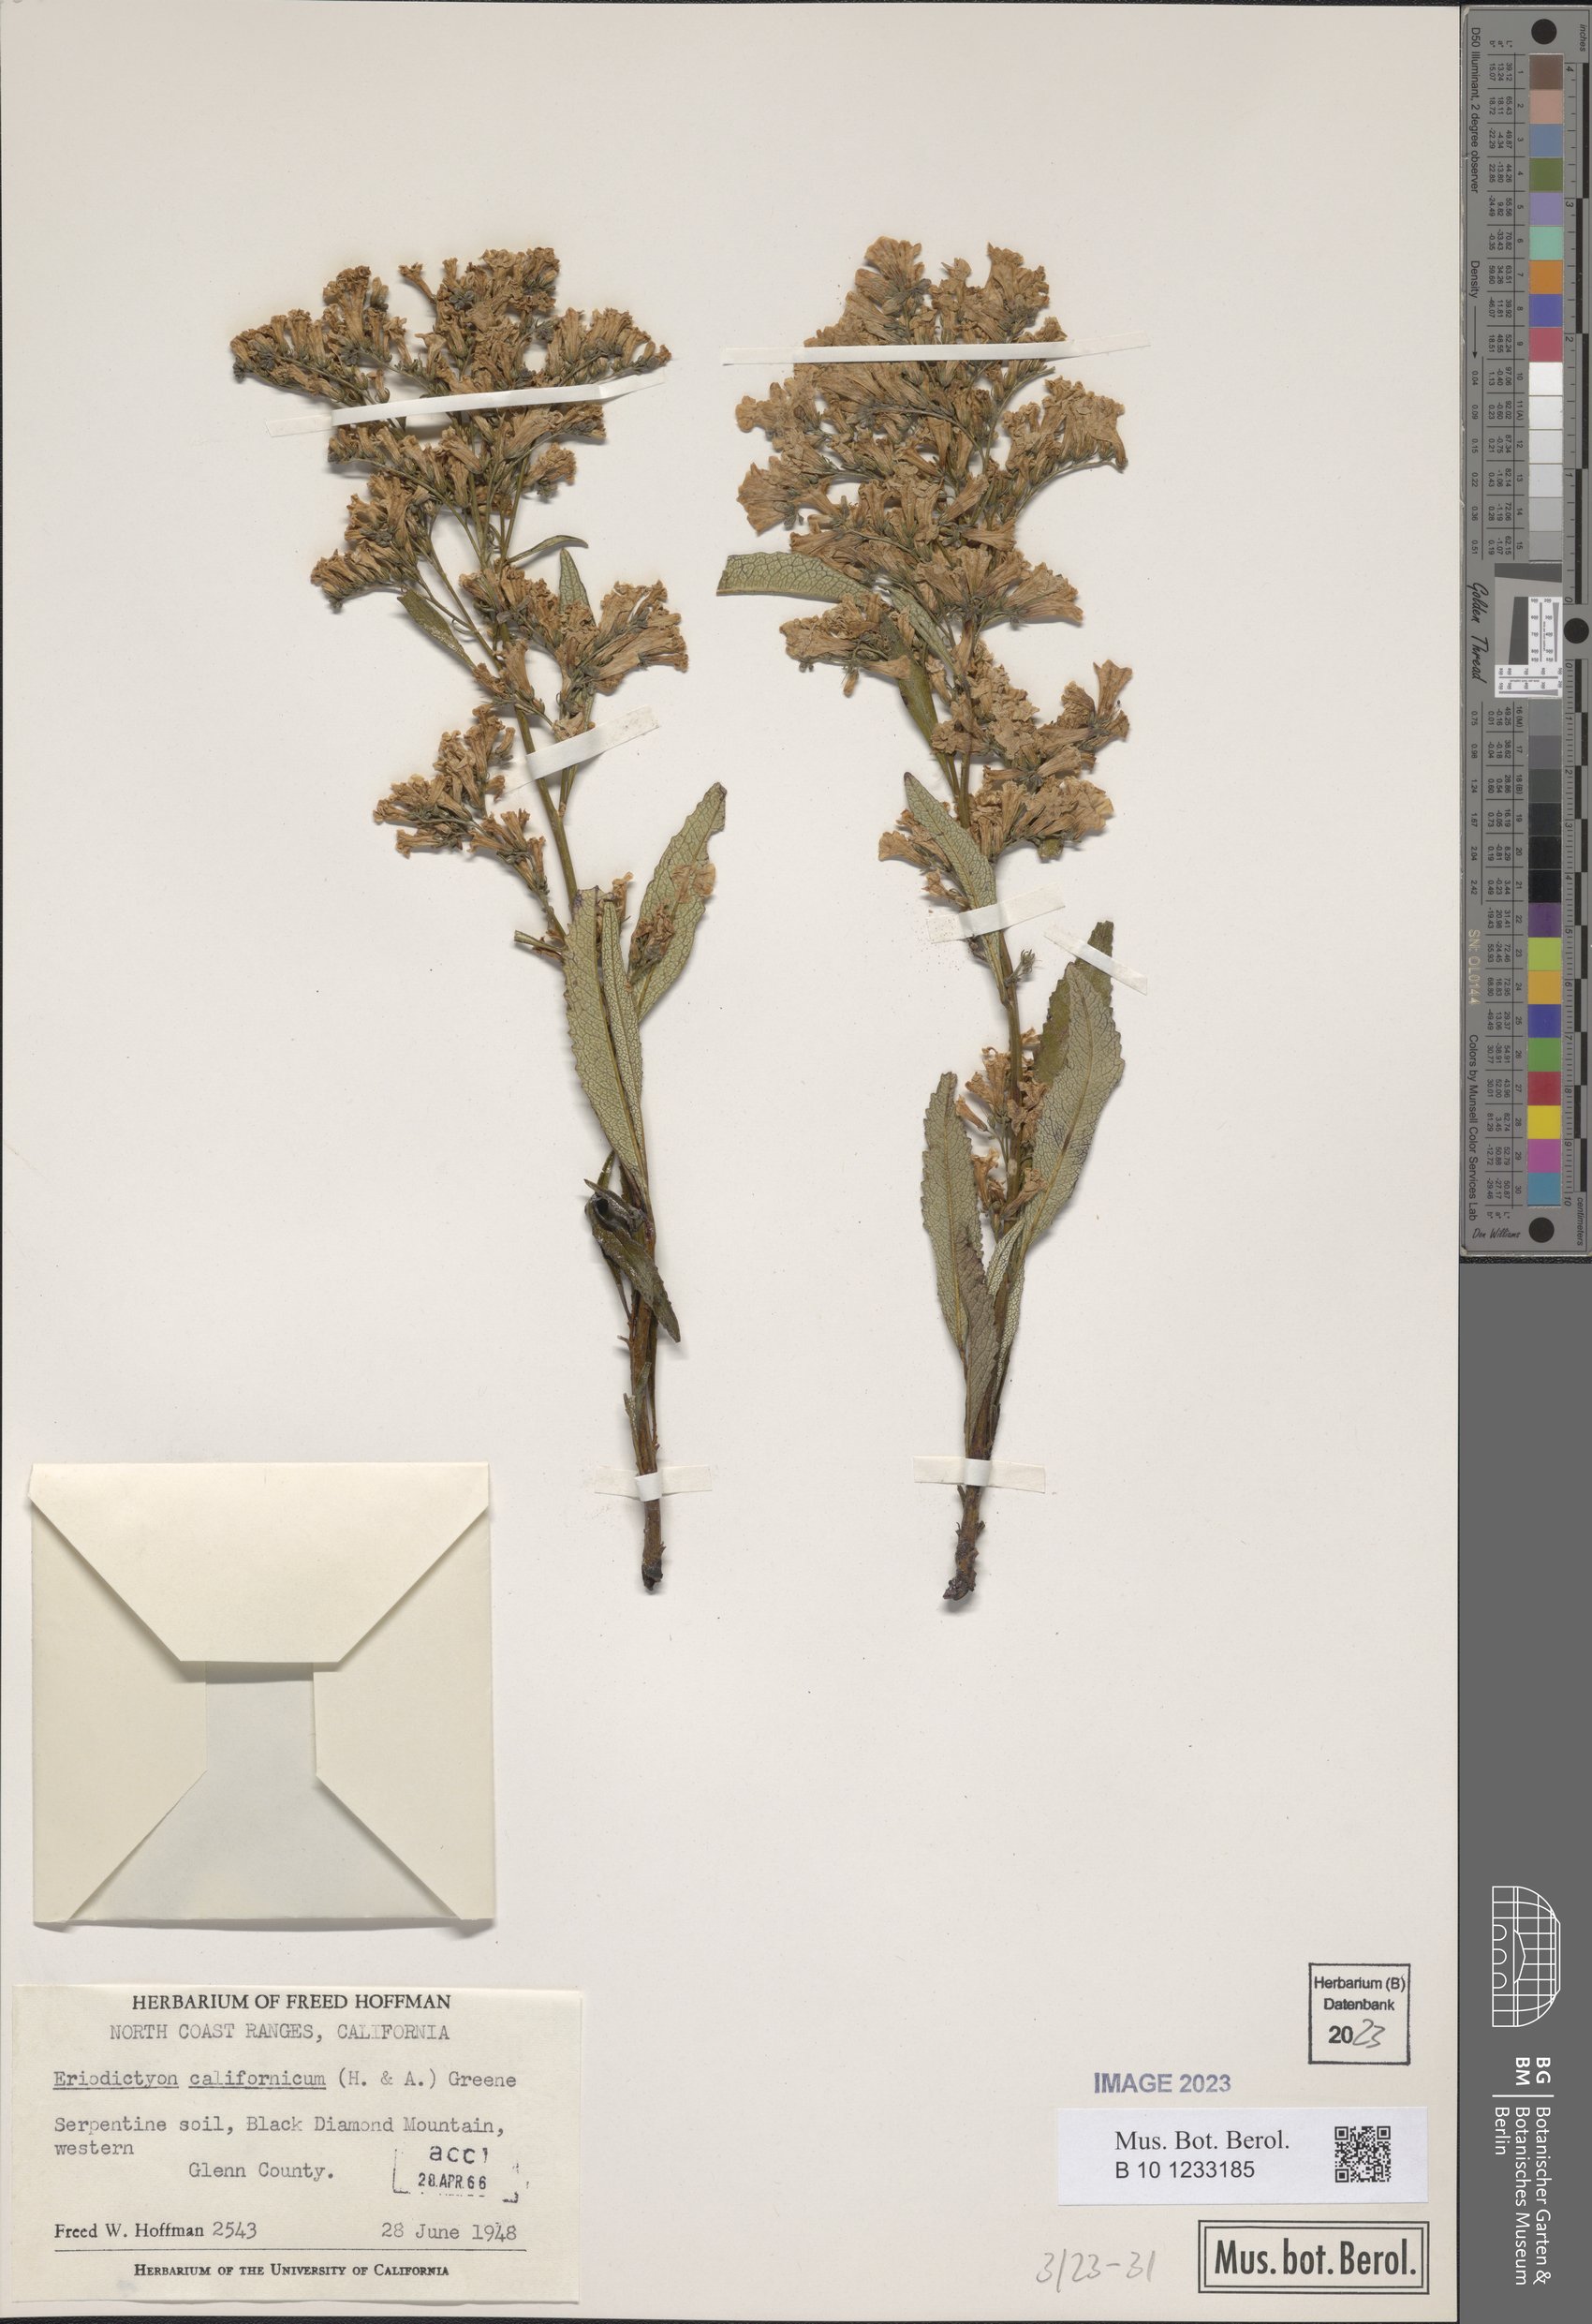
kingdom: Plantae
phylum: Tracheophyta
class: Magnoliopsida
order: Boraginales
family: Namaceae
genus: Eriodictyon
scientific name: Eriodictyon crassifolium
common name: Thick-leaf yerba-santa
